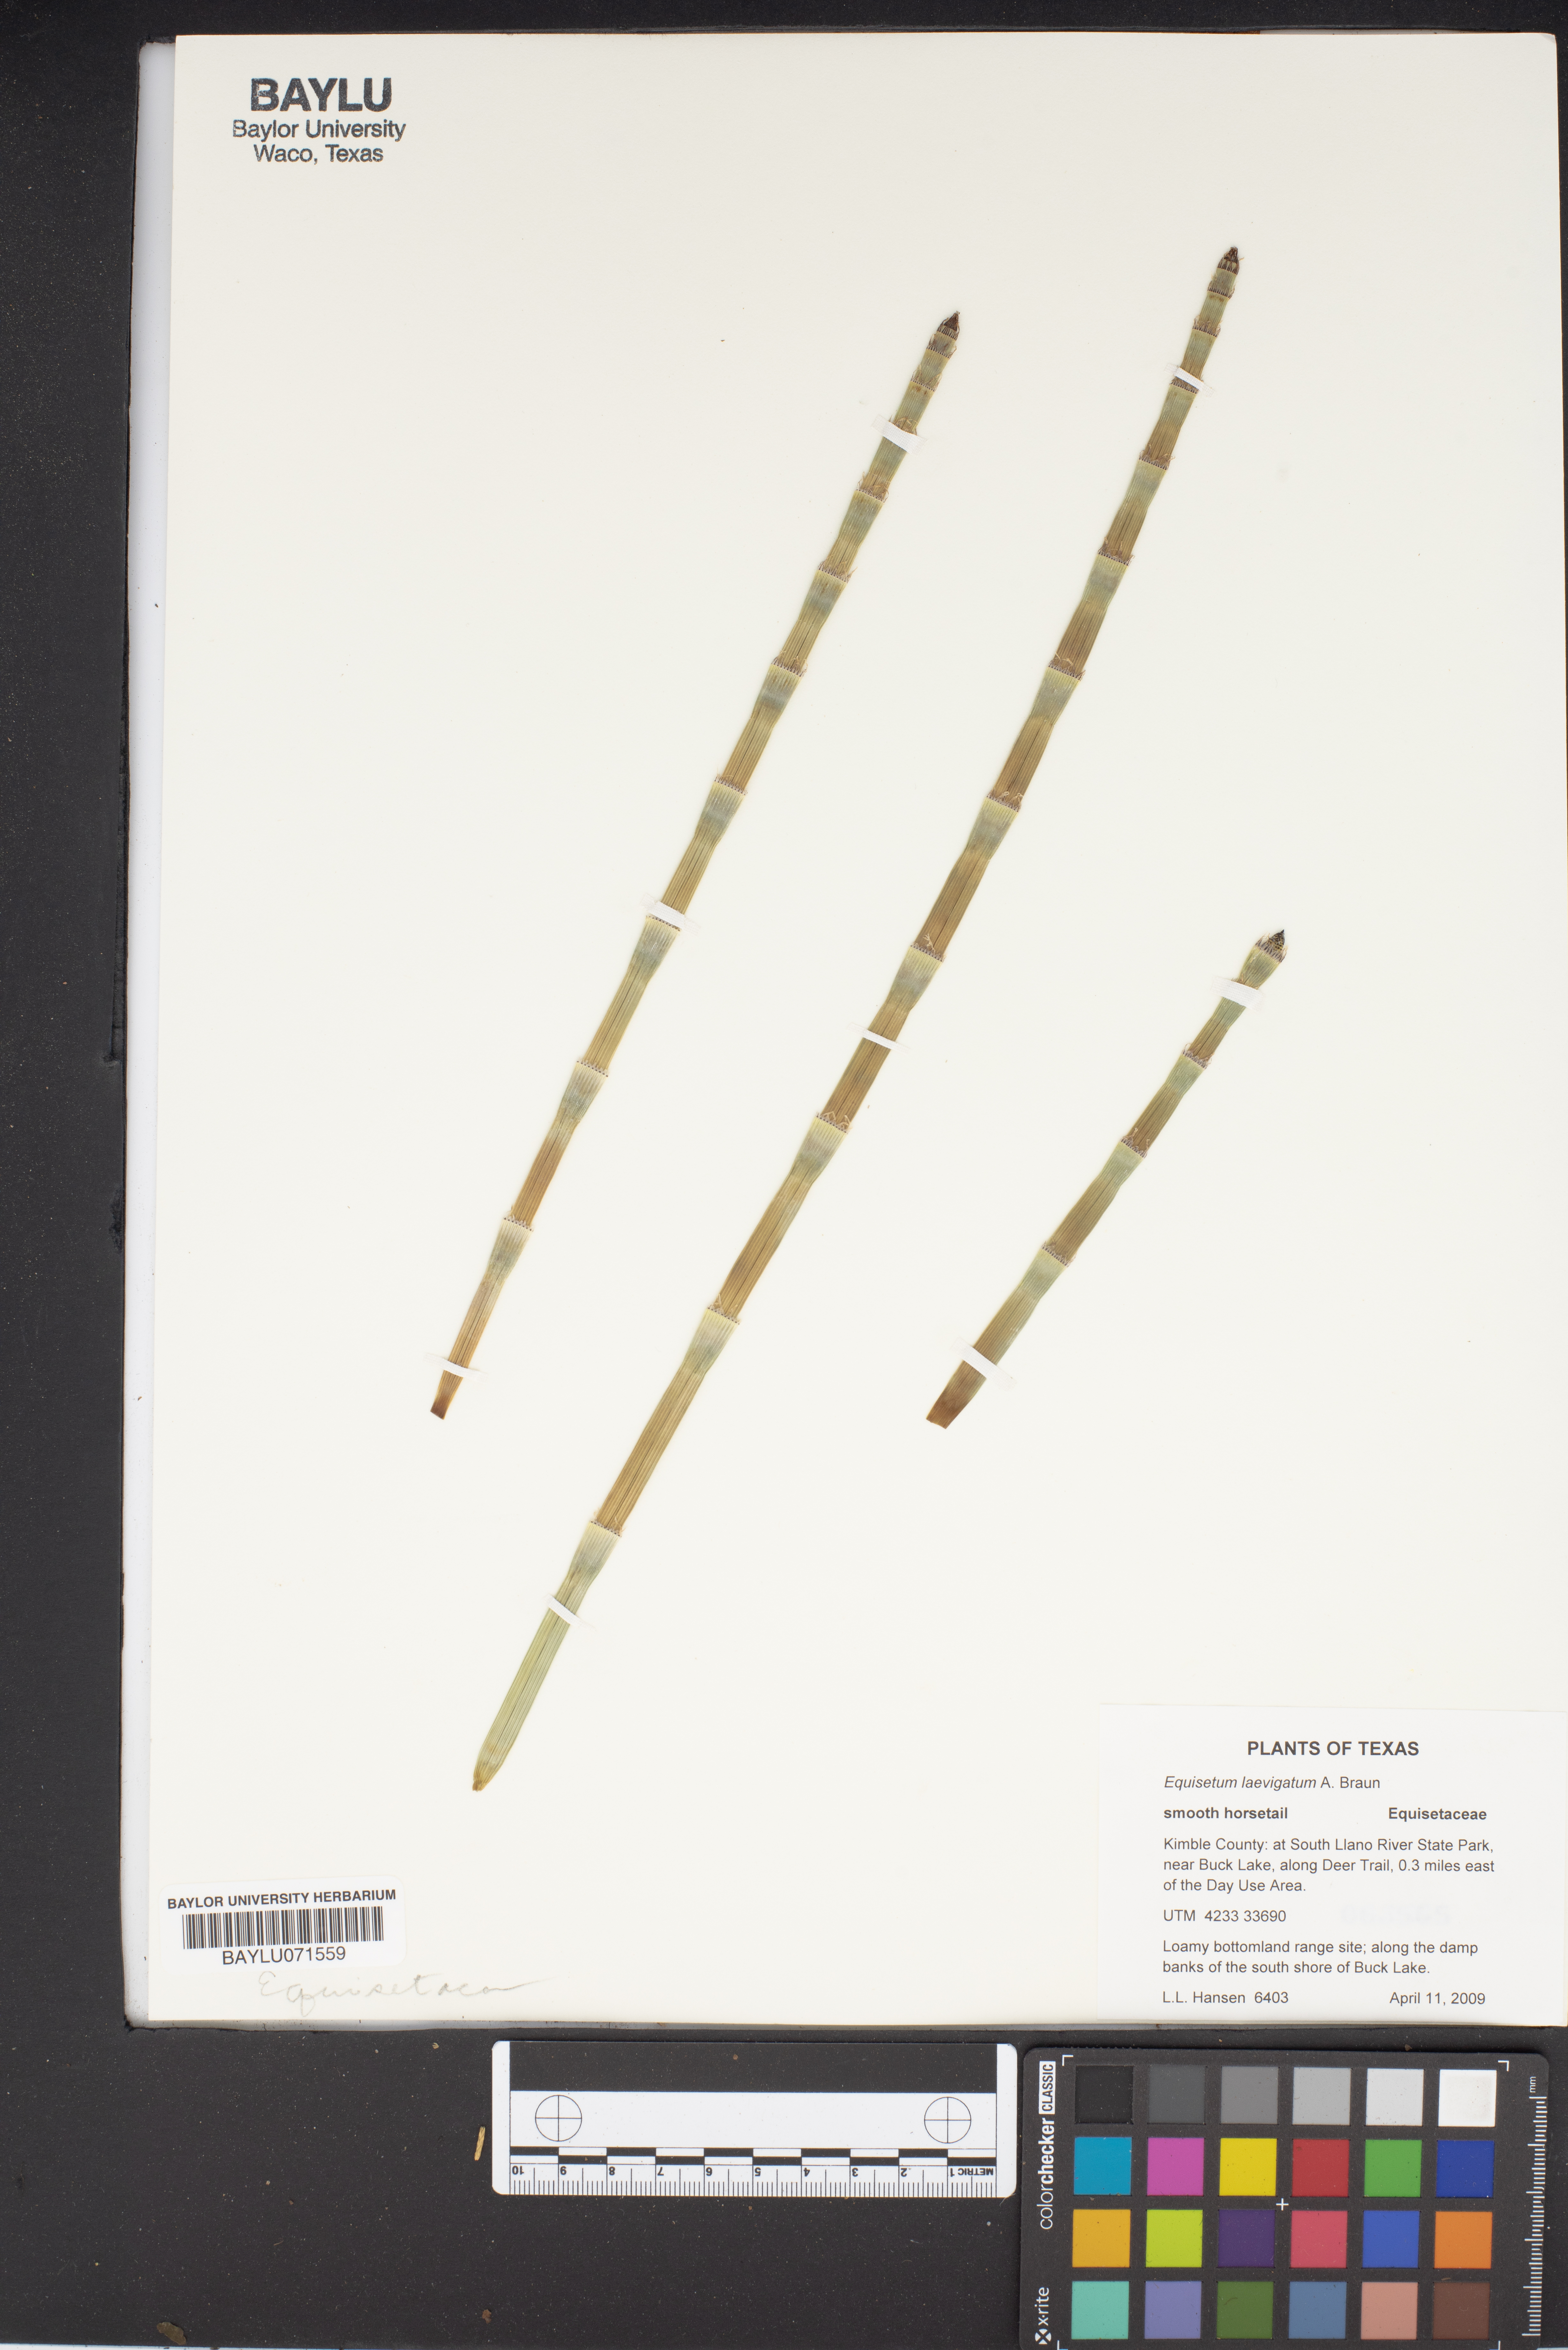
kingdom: Plantae
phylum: Tracheophyta
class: Polypodiopsida
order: Equisetales
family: Equisetaceae
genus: Equisetum
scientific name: Equisetum laevigatum
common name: Smooth scouring-rush
